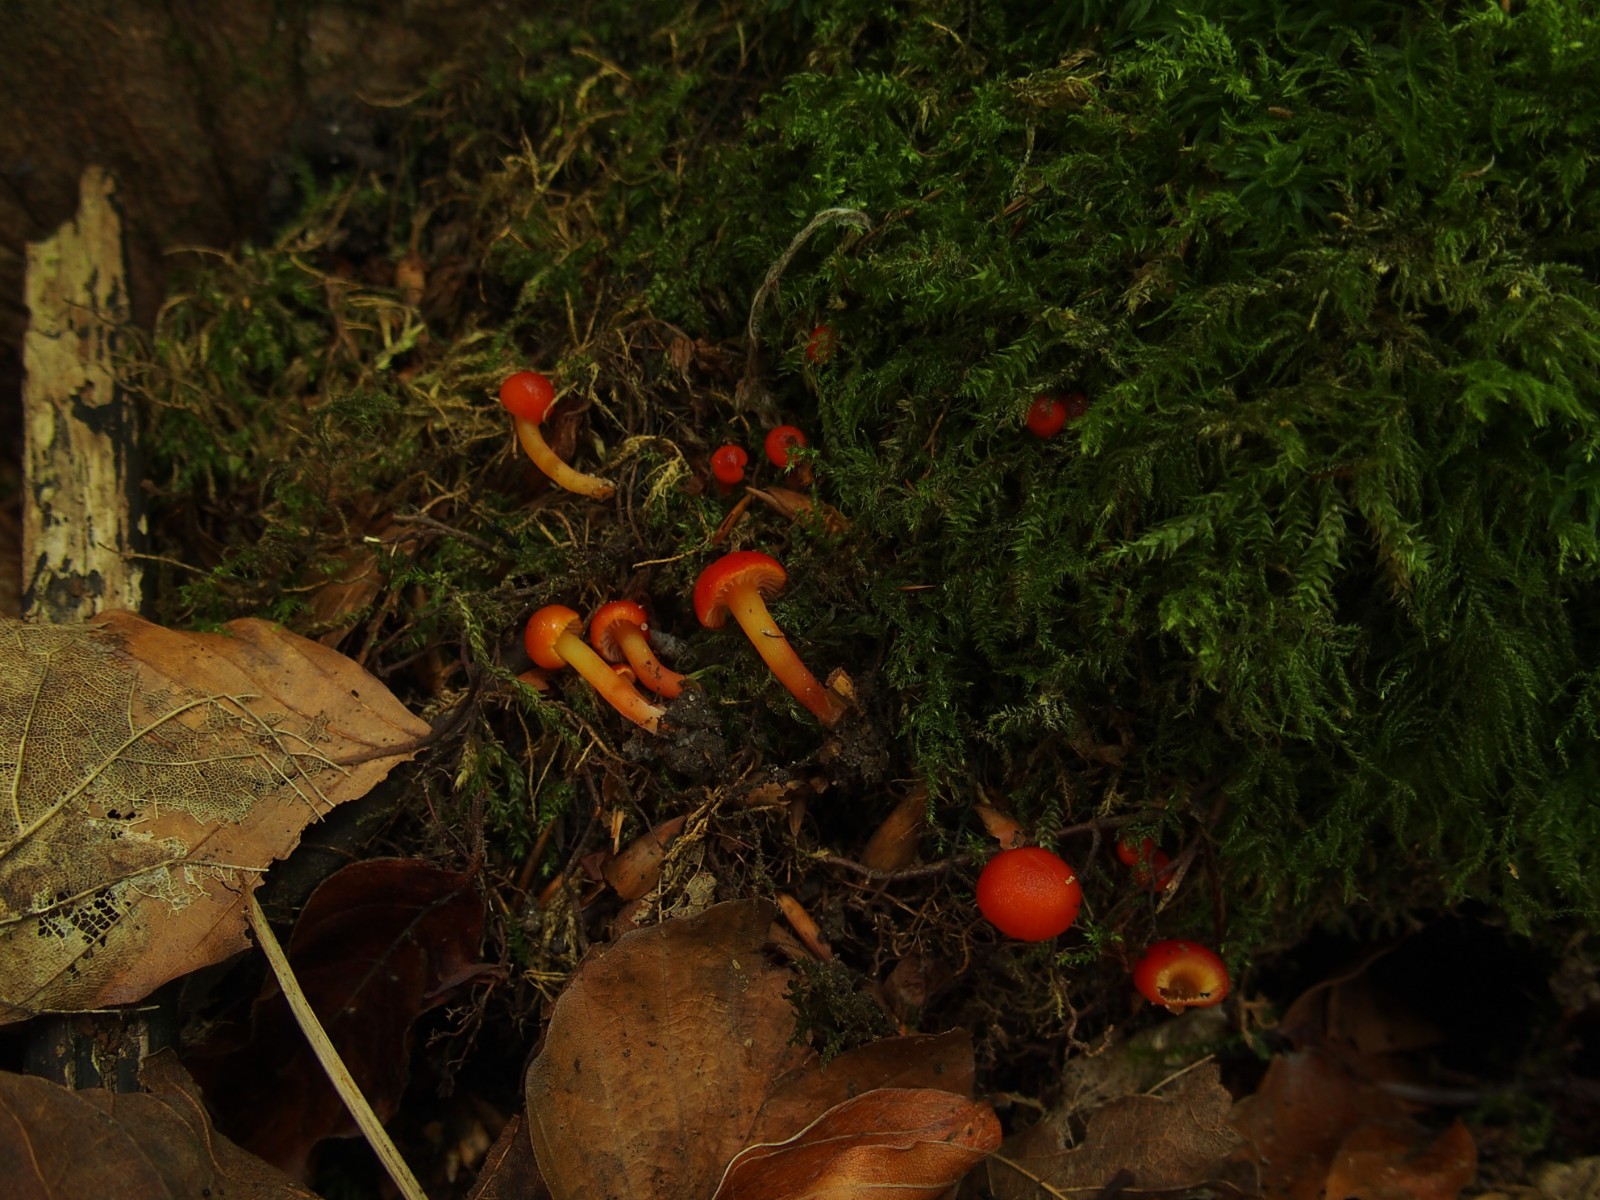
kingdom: Fungi
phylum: Basidiomycota
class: Agaricomycetes
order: Agaricales
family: Hygrophoraceae
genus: Hygrocybe
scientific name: Hygrocybe insipida
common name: liden vokshat
